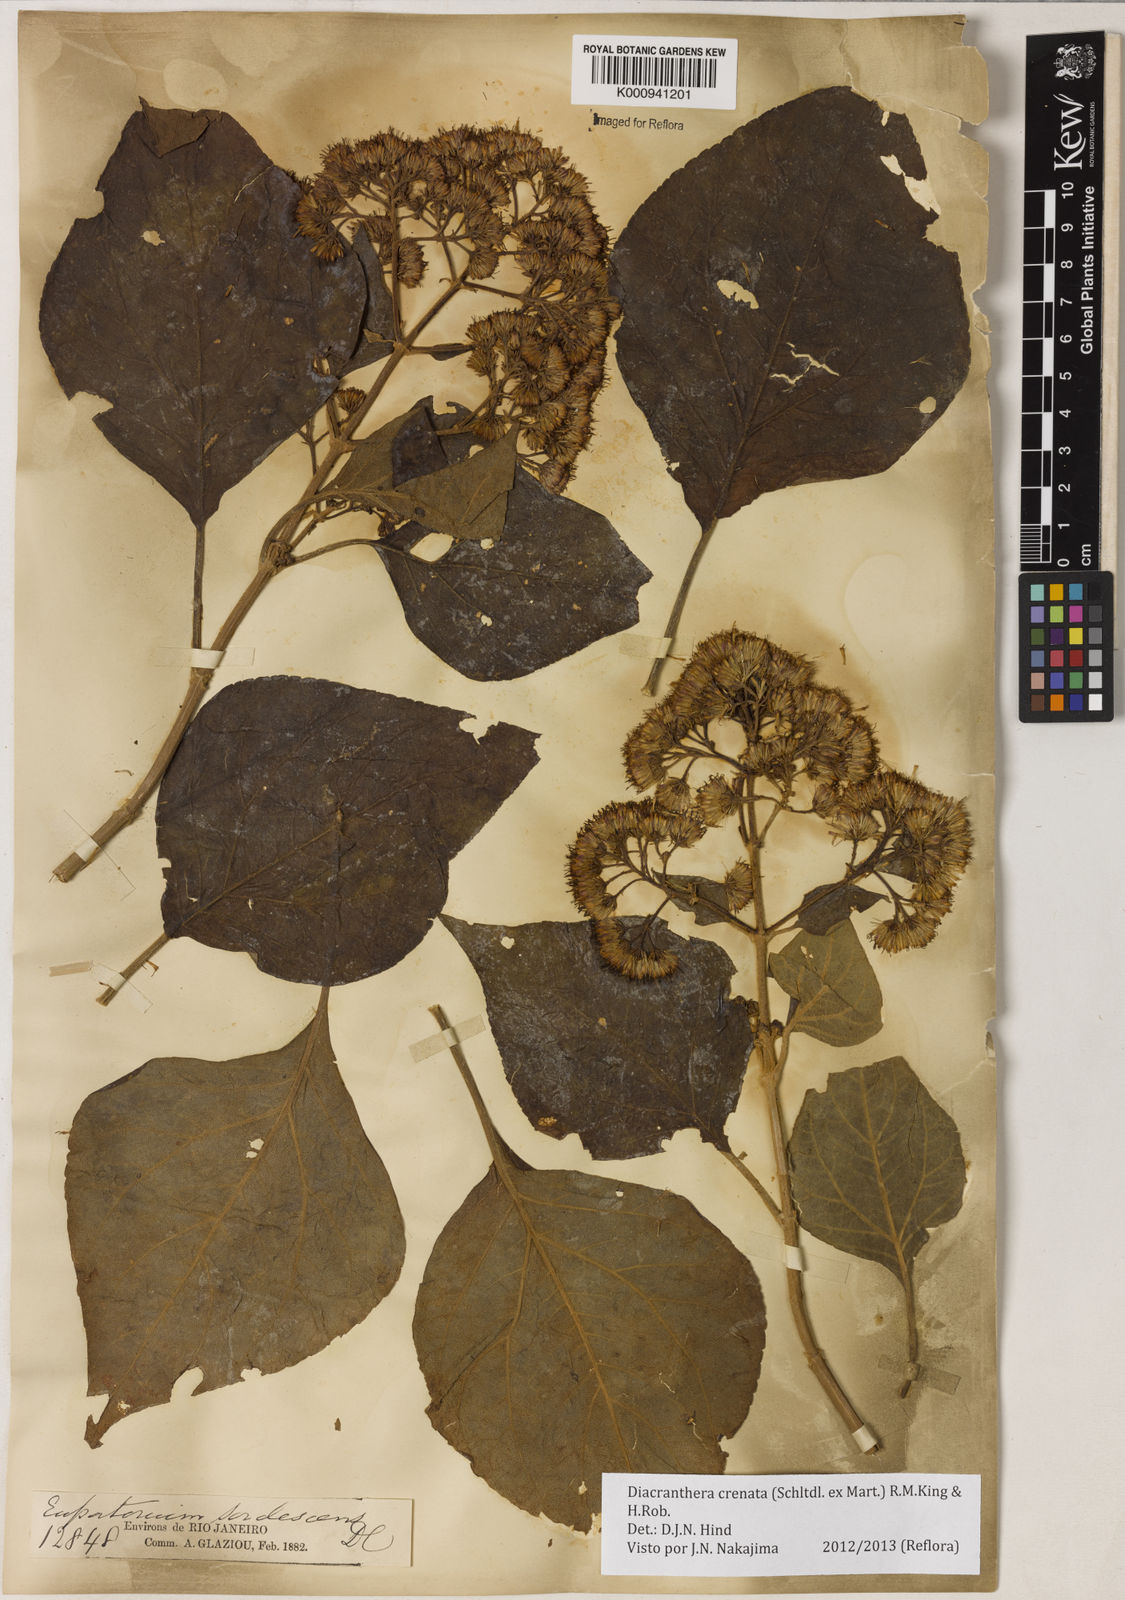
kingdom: Plantae
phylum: Tracheophyta
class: Magnoliopsida
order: Asterales
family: Asteraceae
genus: Diacranthera
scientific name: Diacranthera crenata
